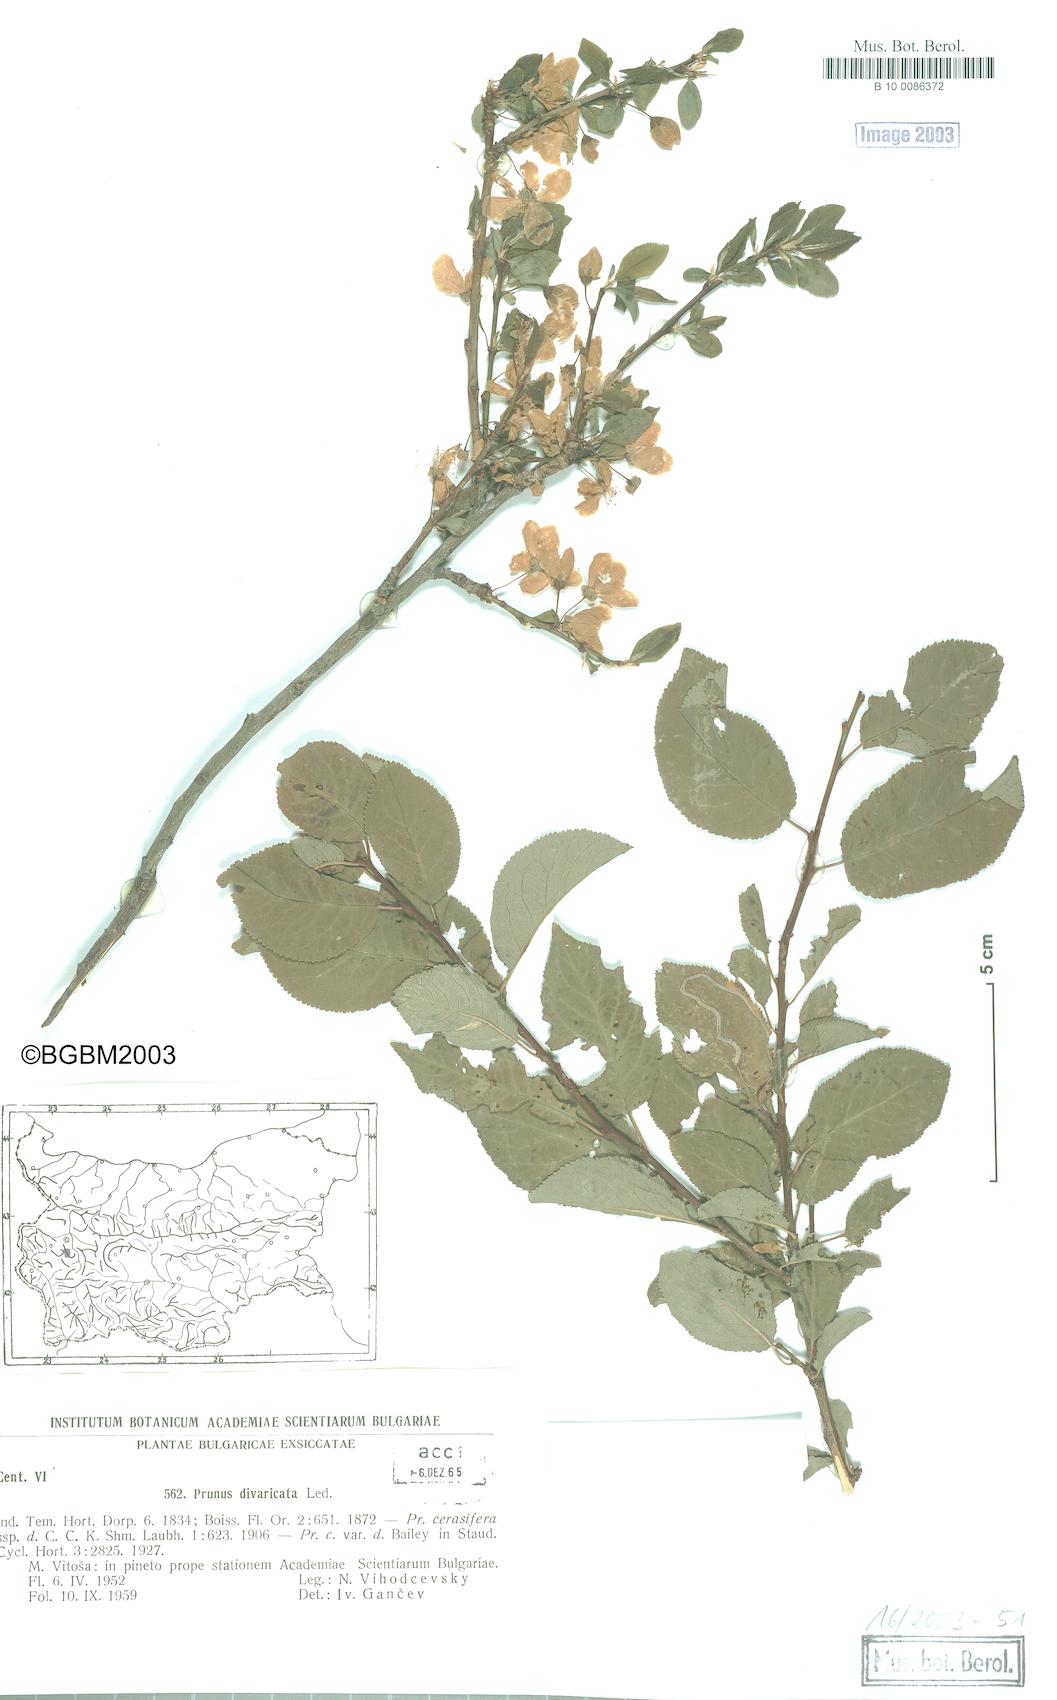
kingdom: Plantae
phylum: Tracheophyta
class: Magnoliopsida
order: Rosales
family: Rosaceae
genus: Prunus
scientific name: Prunus
